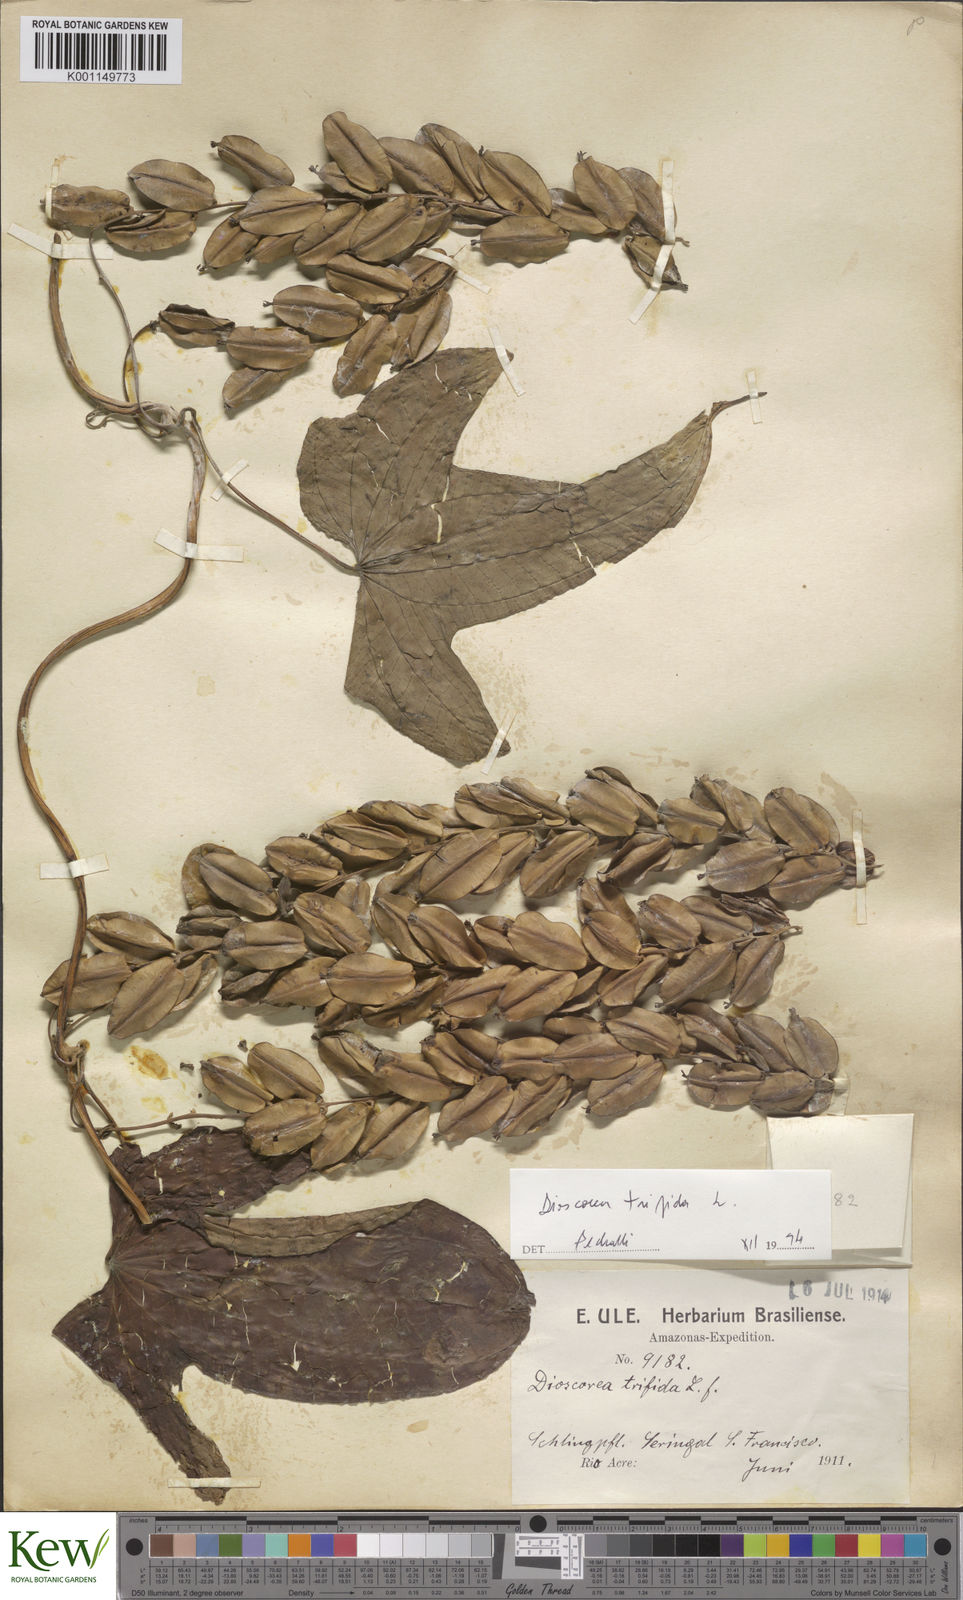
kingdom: Plantae
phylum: Tracheophyta
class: Liliopsida
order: Dioscoreales
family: Dioscoreaceae
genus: Dioscorea
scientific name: Dioscorea trifida
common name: Cush-cush
